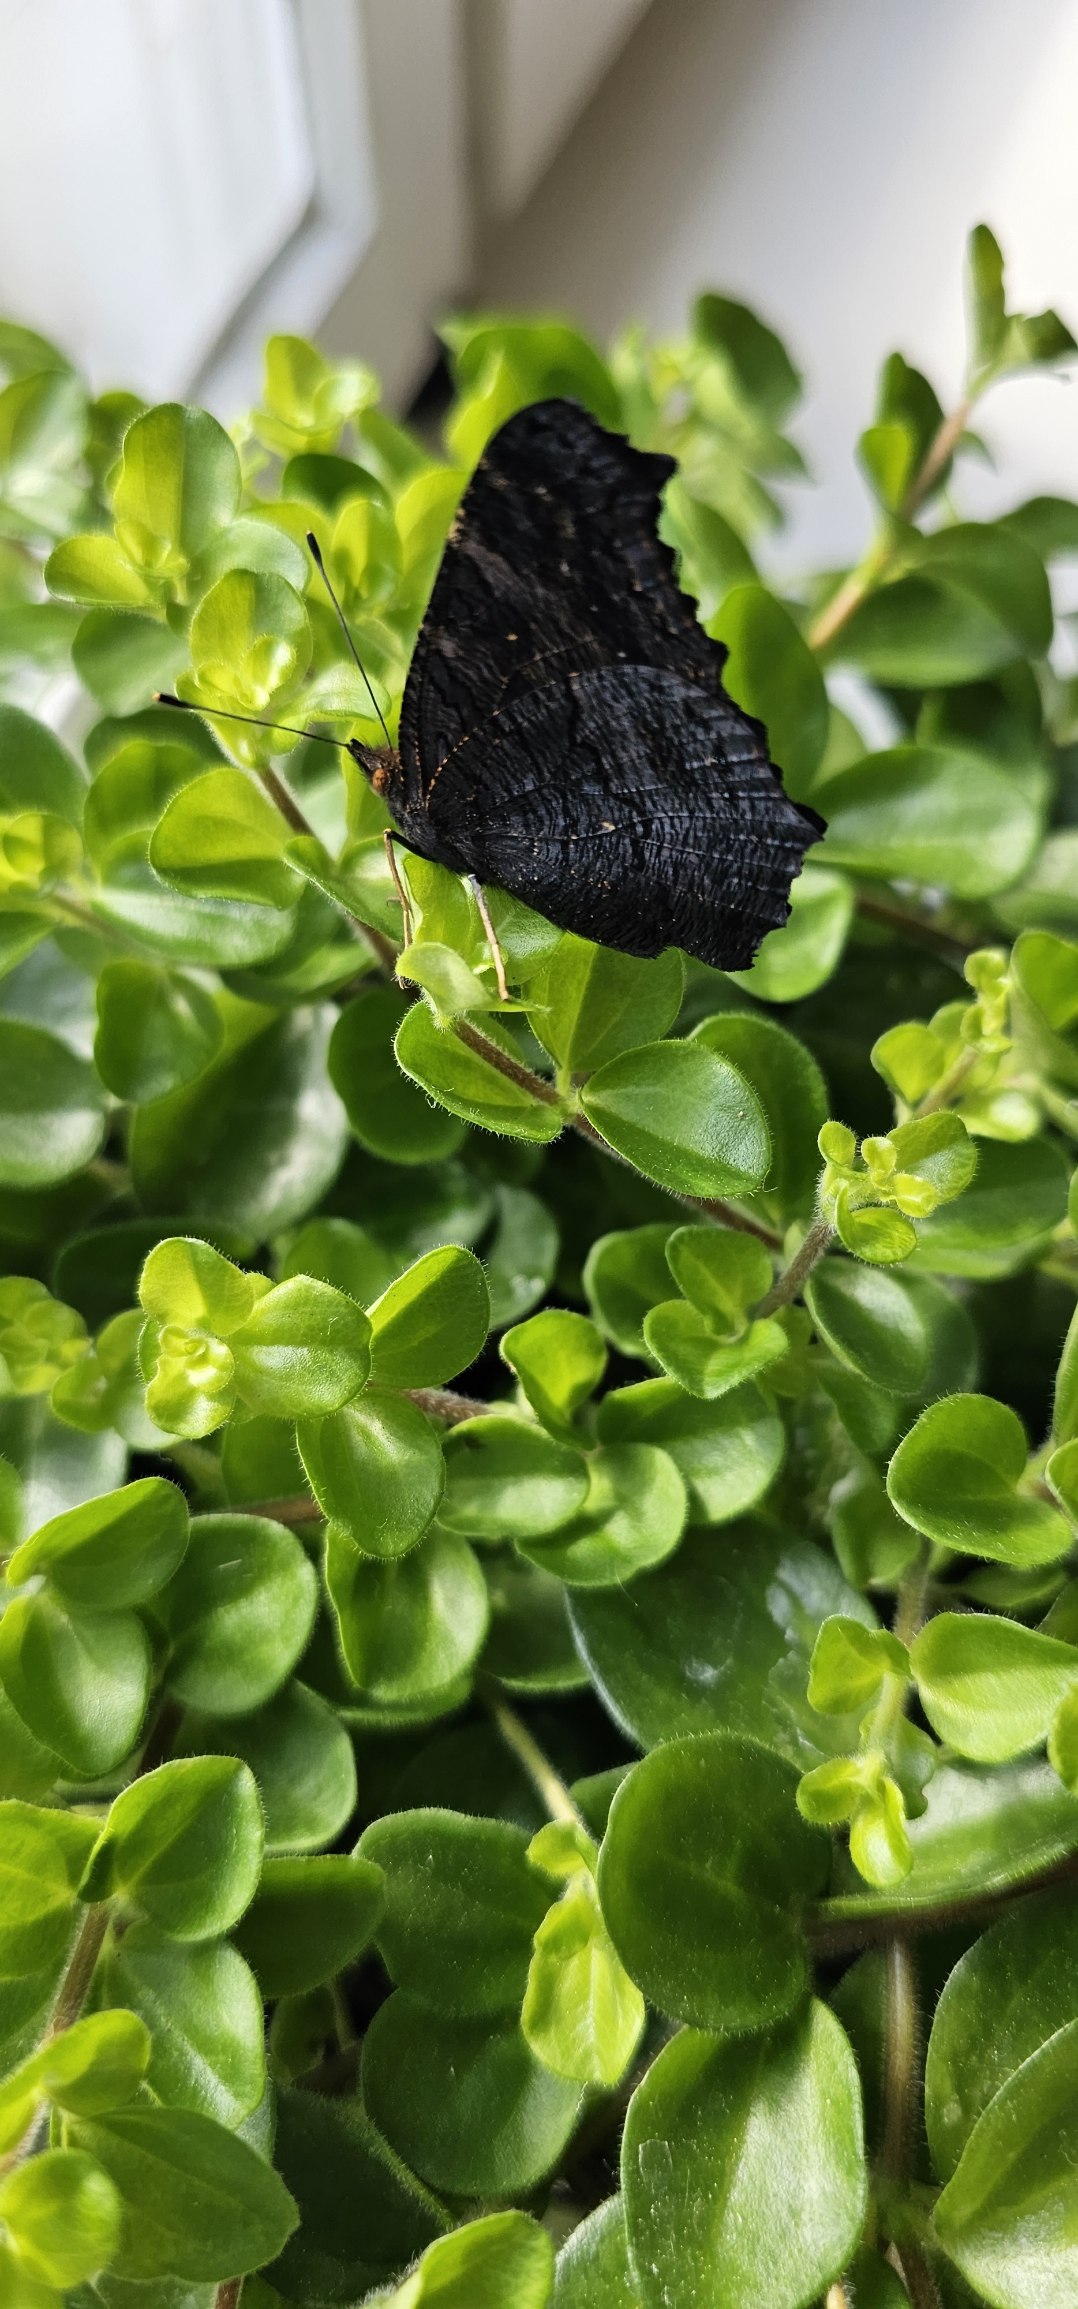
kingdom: Animalia
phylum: Arthropoda
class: Insecta
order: Lepidoptera
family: Nymphalidae
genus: Aglais
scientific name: Aglais io
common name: Dagpåfugleøje
